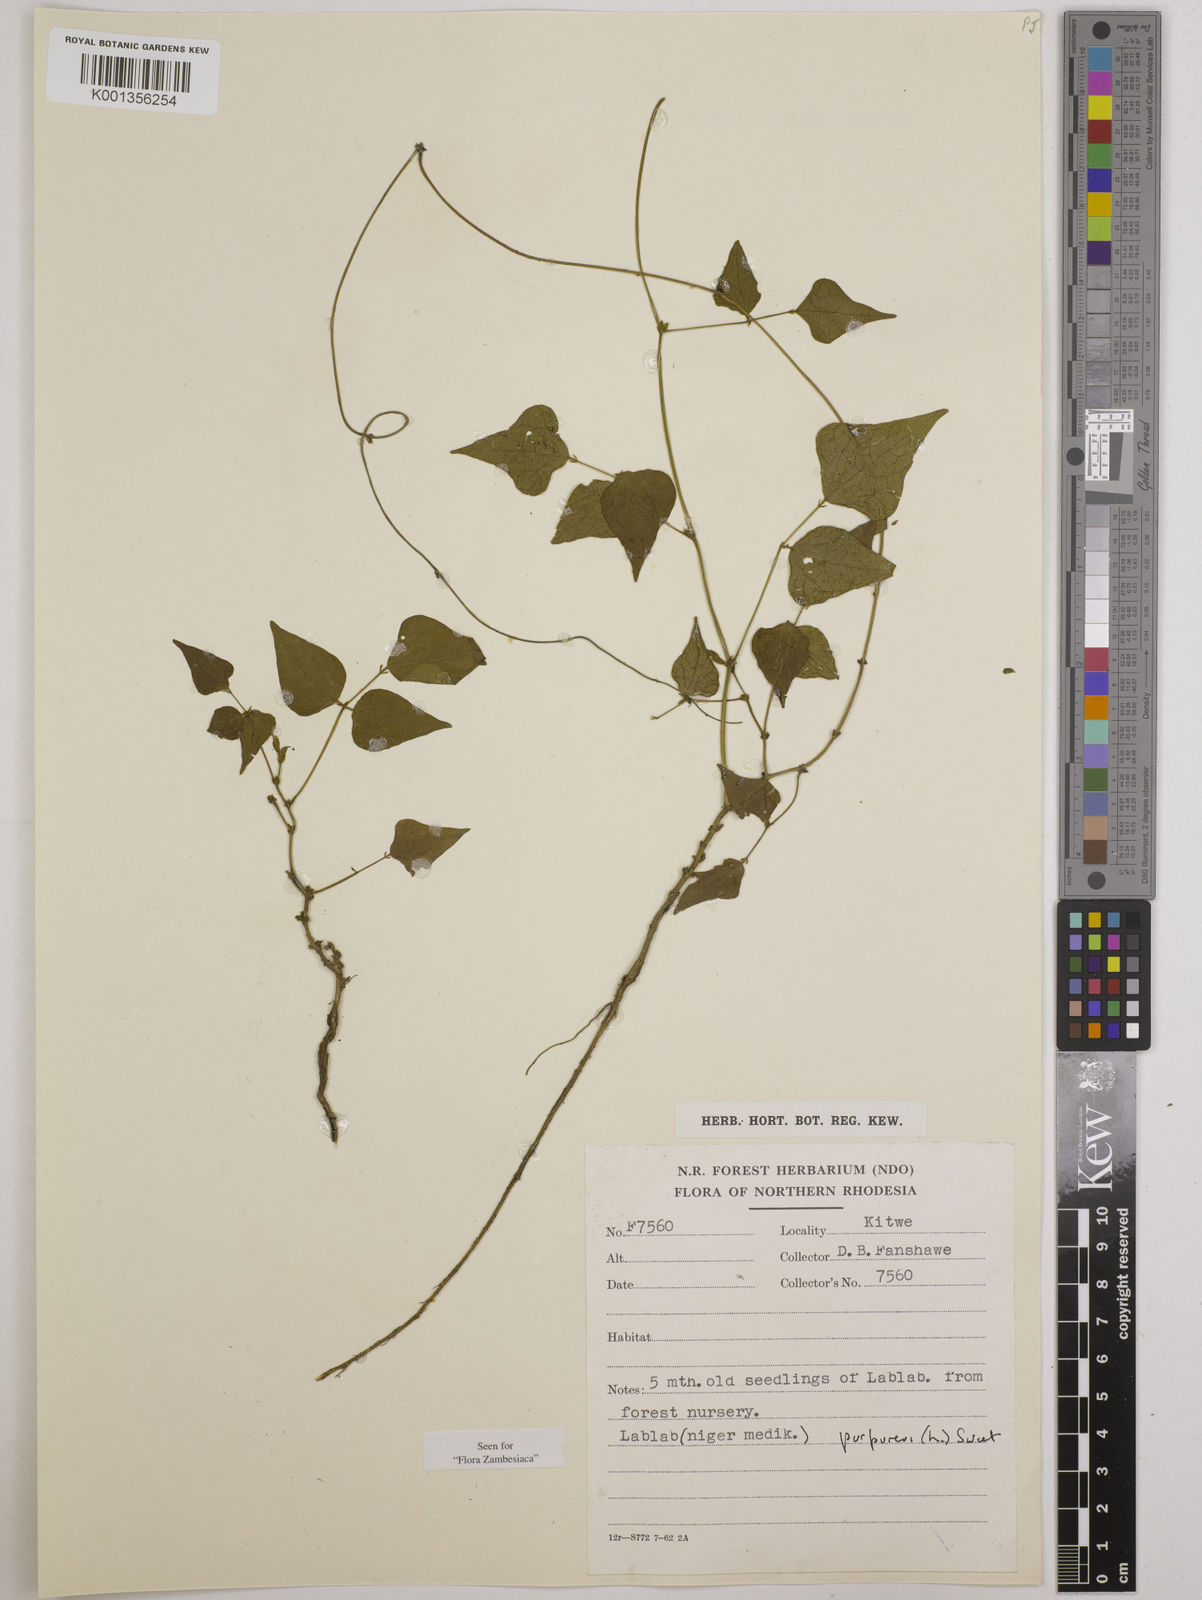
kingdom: Plantae
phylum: Tracheophyta
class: Magnoliopsida
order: Fabales
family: Fabaceae
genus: Lablab
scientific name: Lablab purpureus
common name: Lablab-bean
